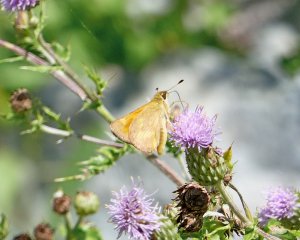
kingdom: Animalia
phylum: Arthropoda
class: Insecta
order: Lepidoptera
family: Hesperiidae
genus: Ochlodes
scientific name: Ochlodes sylvanoides
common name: Woodland Skipper
